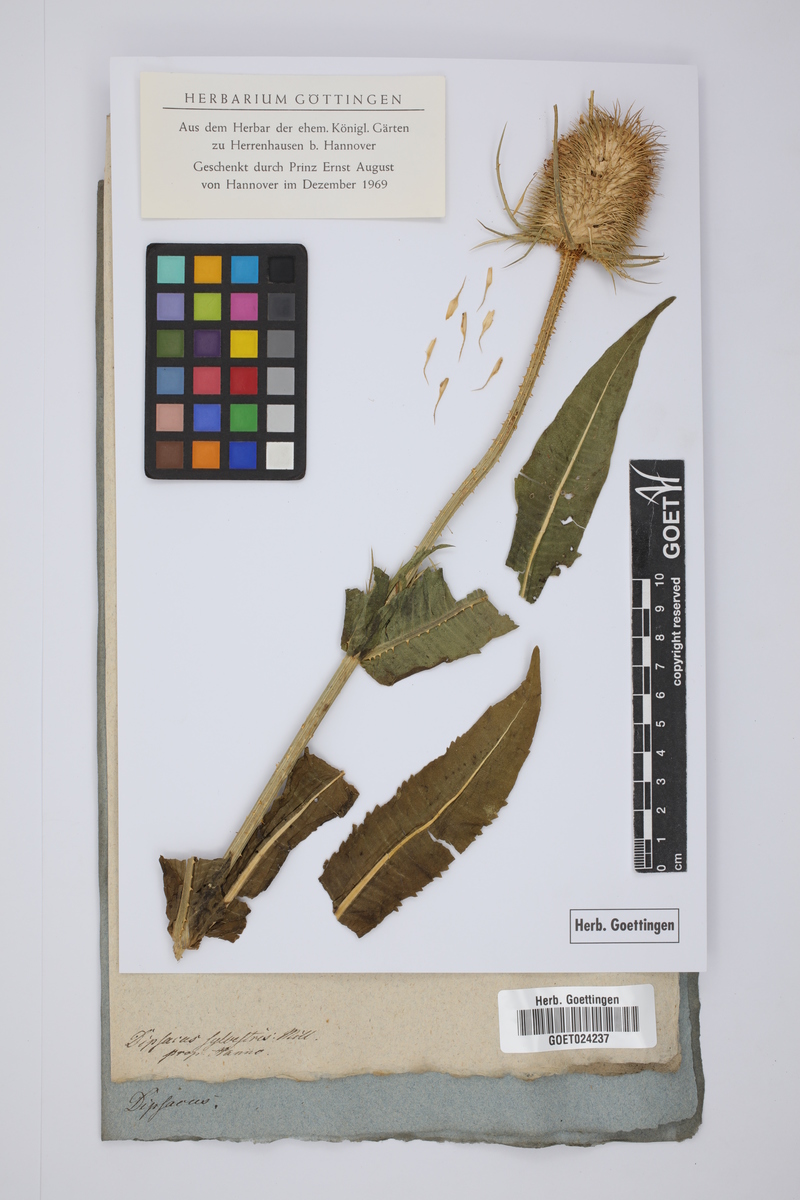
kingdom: Plantae
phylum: Tracheophyta
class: Magnoliopsida
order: Dipsacales
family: Caprifoliaceae
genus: Dipsacus
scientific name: Dipsacus fullonum
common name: Teasel
